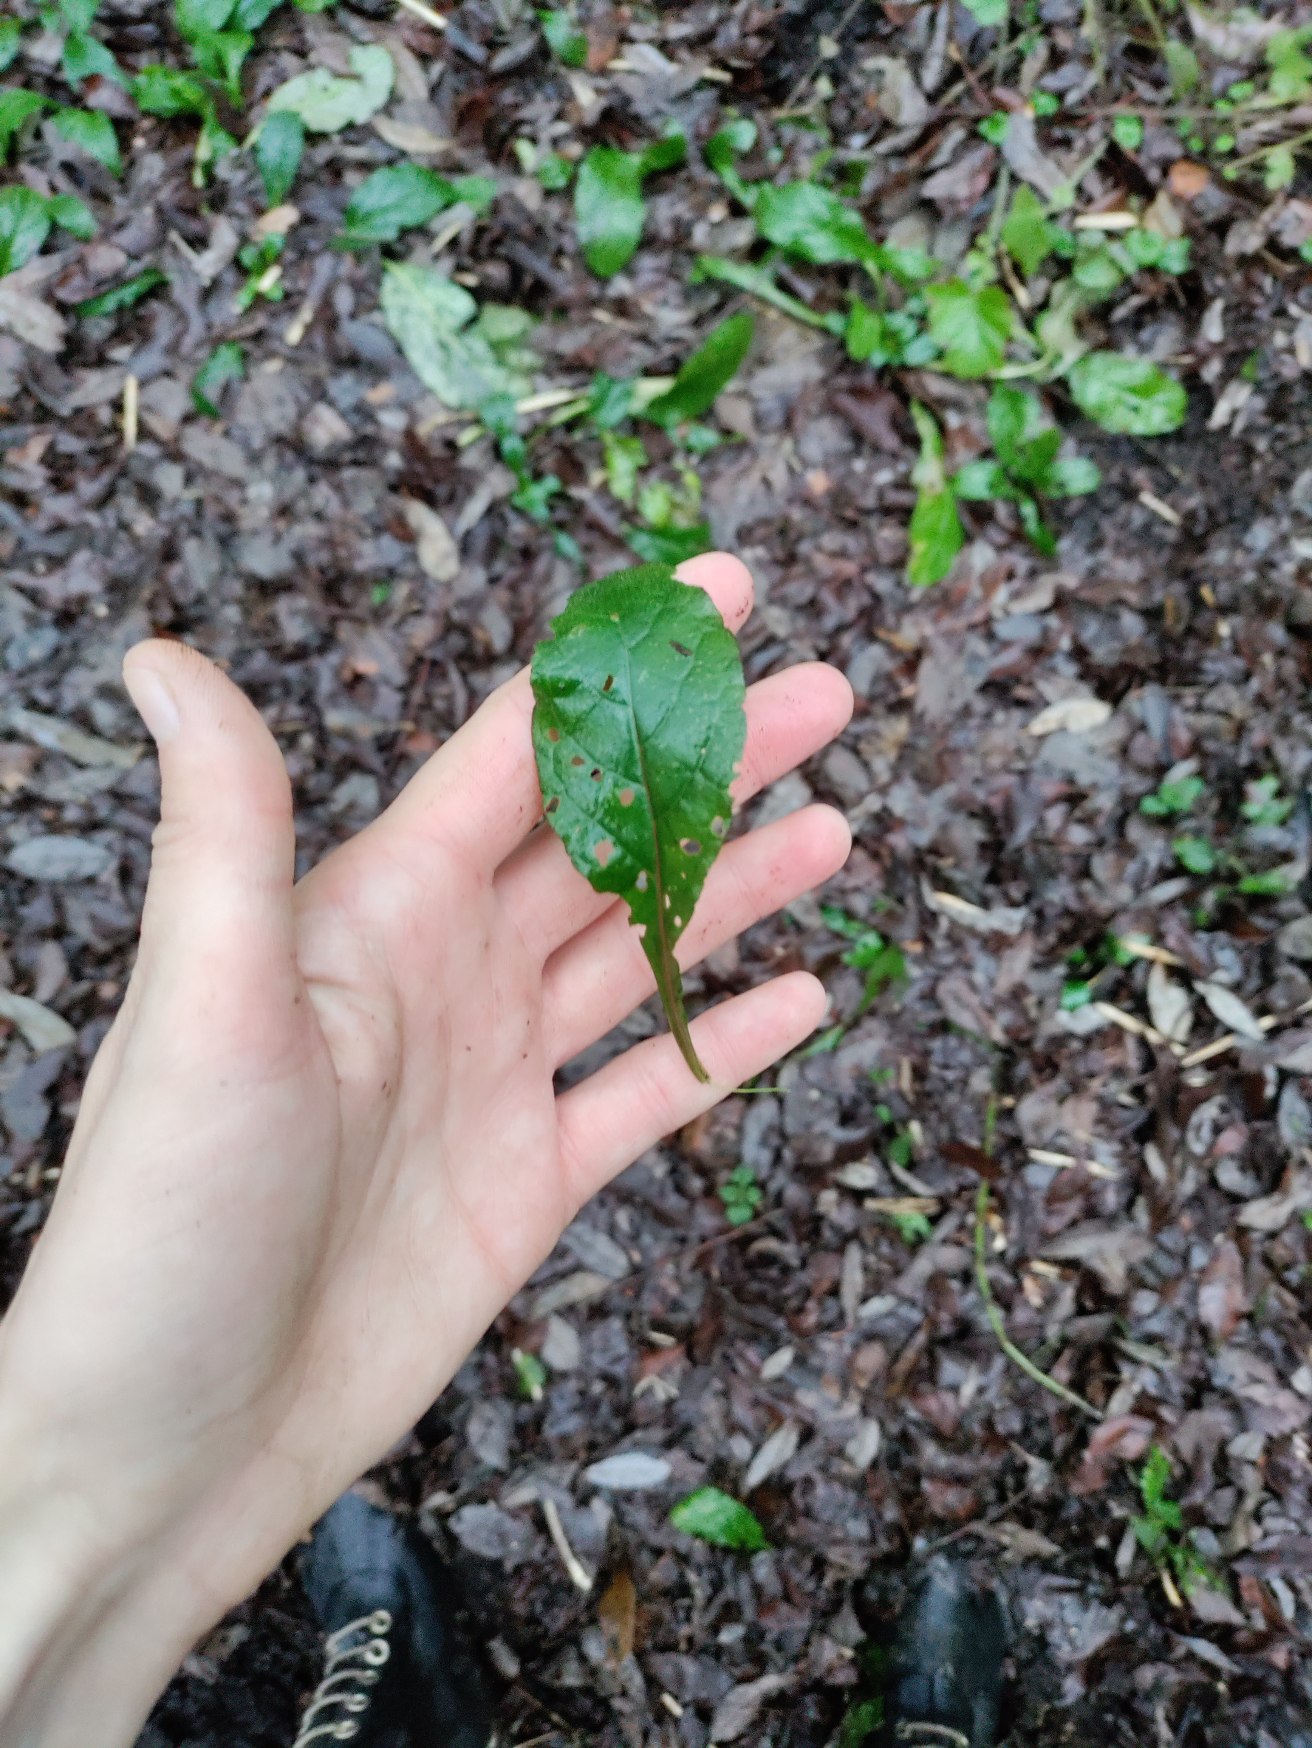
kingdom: Plantae
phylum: Tracheophyta
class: Magnoliopsida
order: Lamiales
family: Lamiaceae
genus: Ajuga
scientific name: Ajuga reptans
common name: Krybende læbeløs
